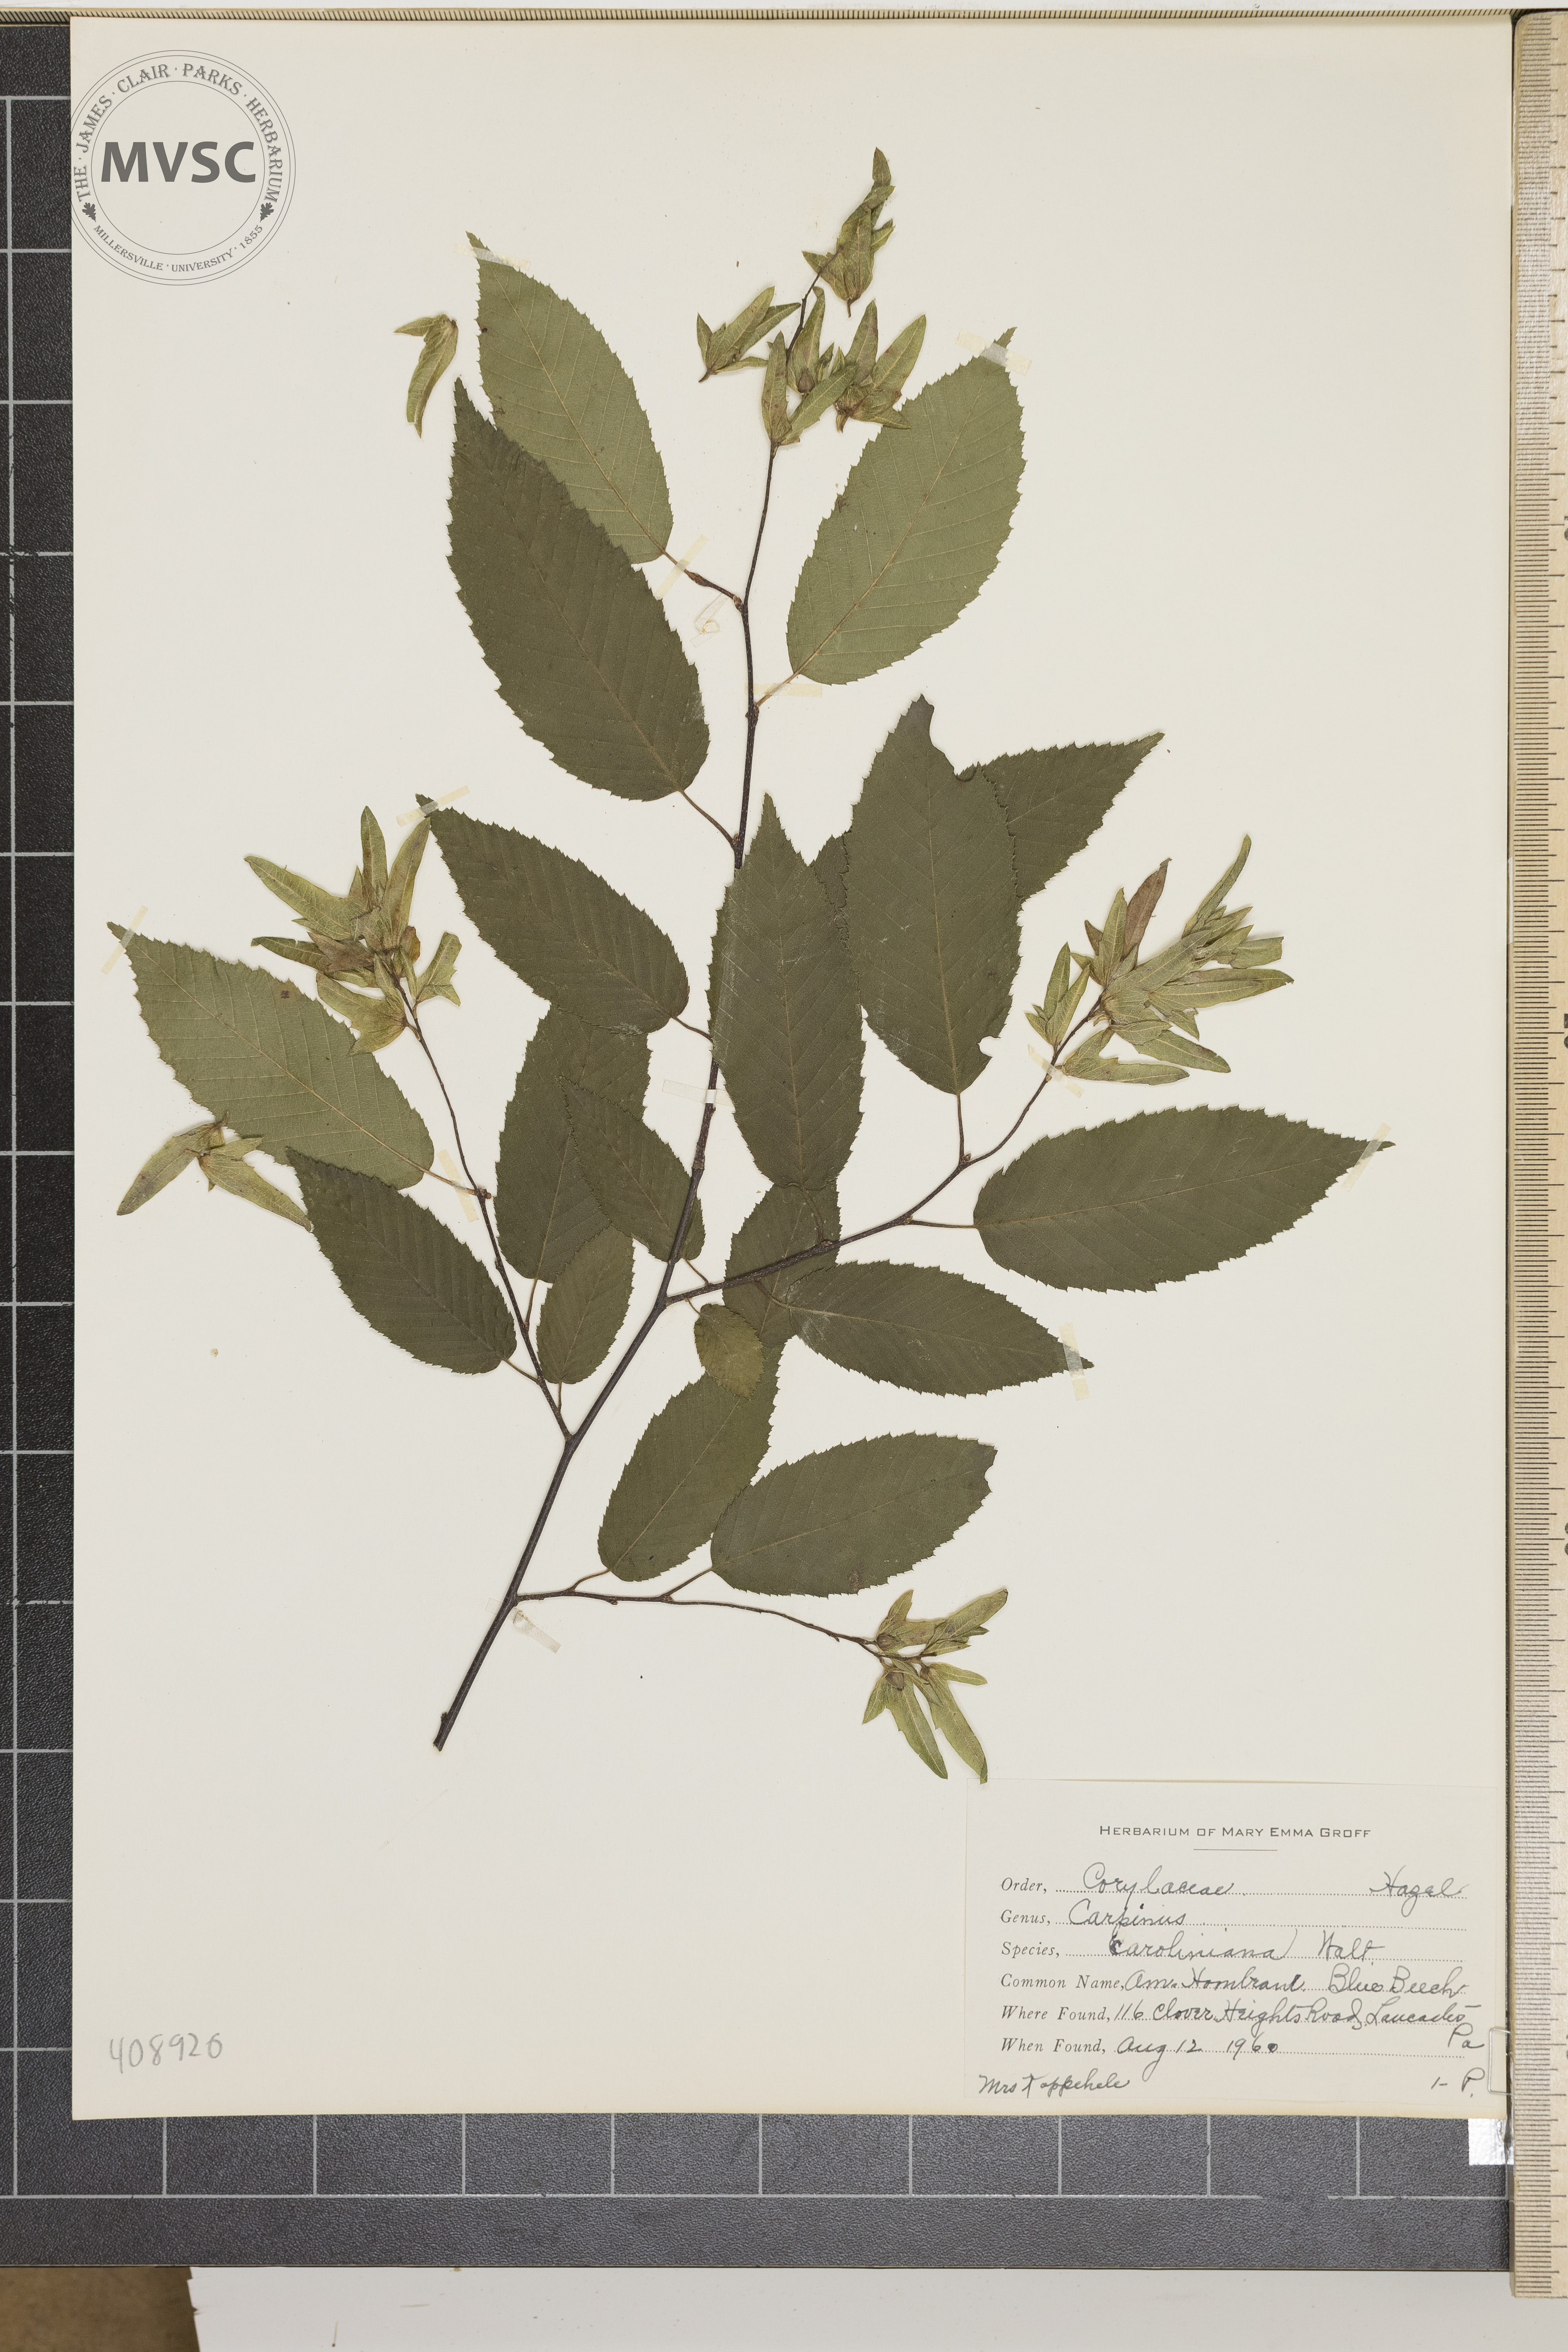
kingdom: Plantae
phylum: Tracheophyta
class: Magnoliopsida
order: Fagales
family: Betulaceae
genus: Carpinus
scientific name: Carpinus caroliniana
